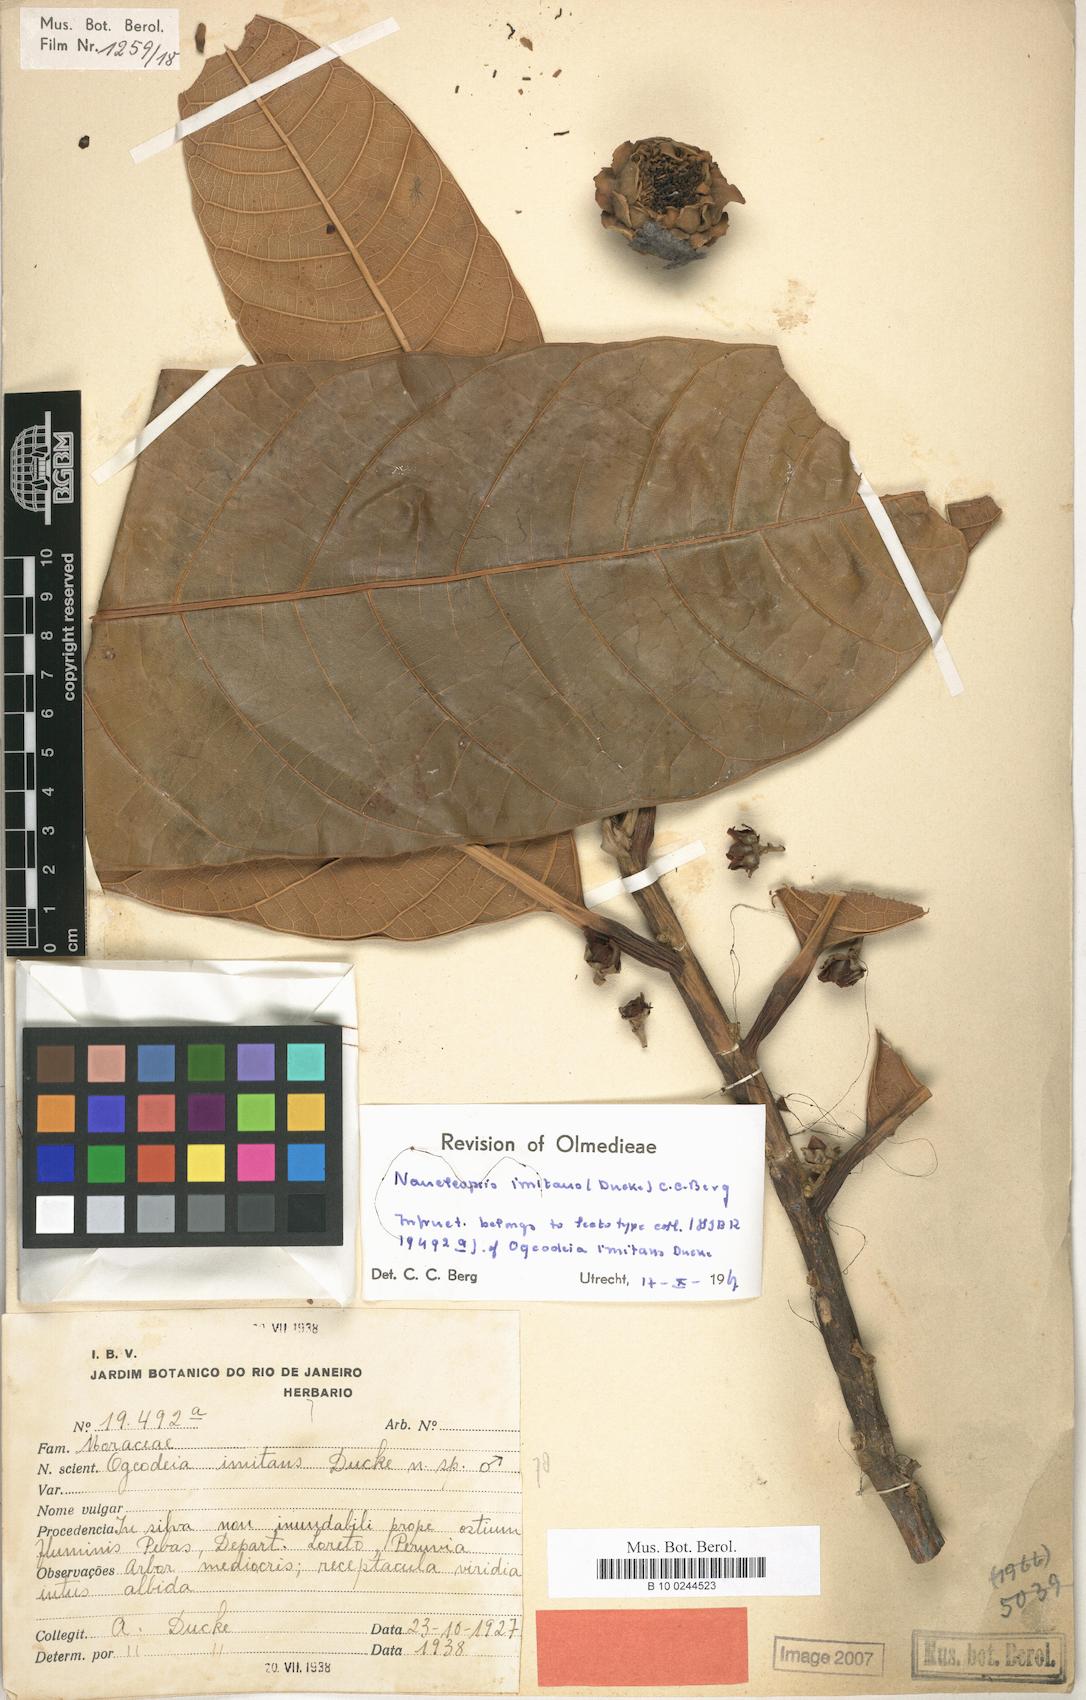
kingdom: Plantae
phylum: Tracheophyta
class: Magnoliopsida
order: Rosales
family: Moraceae
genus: Naucleopsis
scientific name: Naucleopsis imitans
